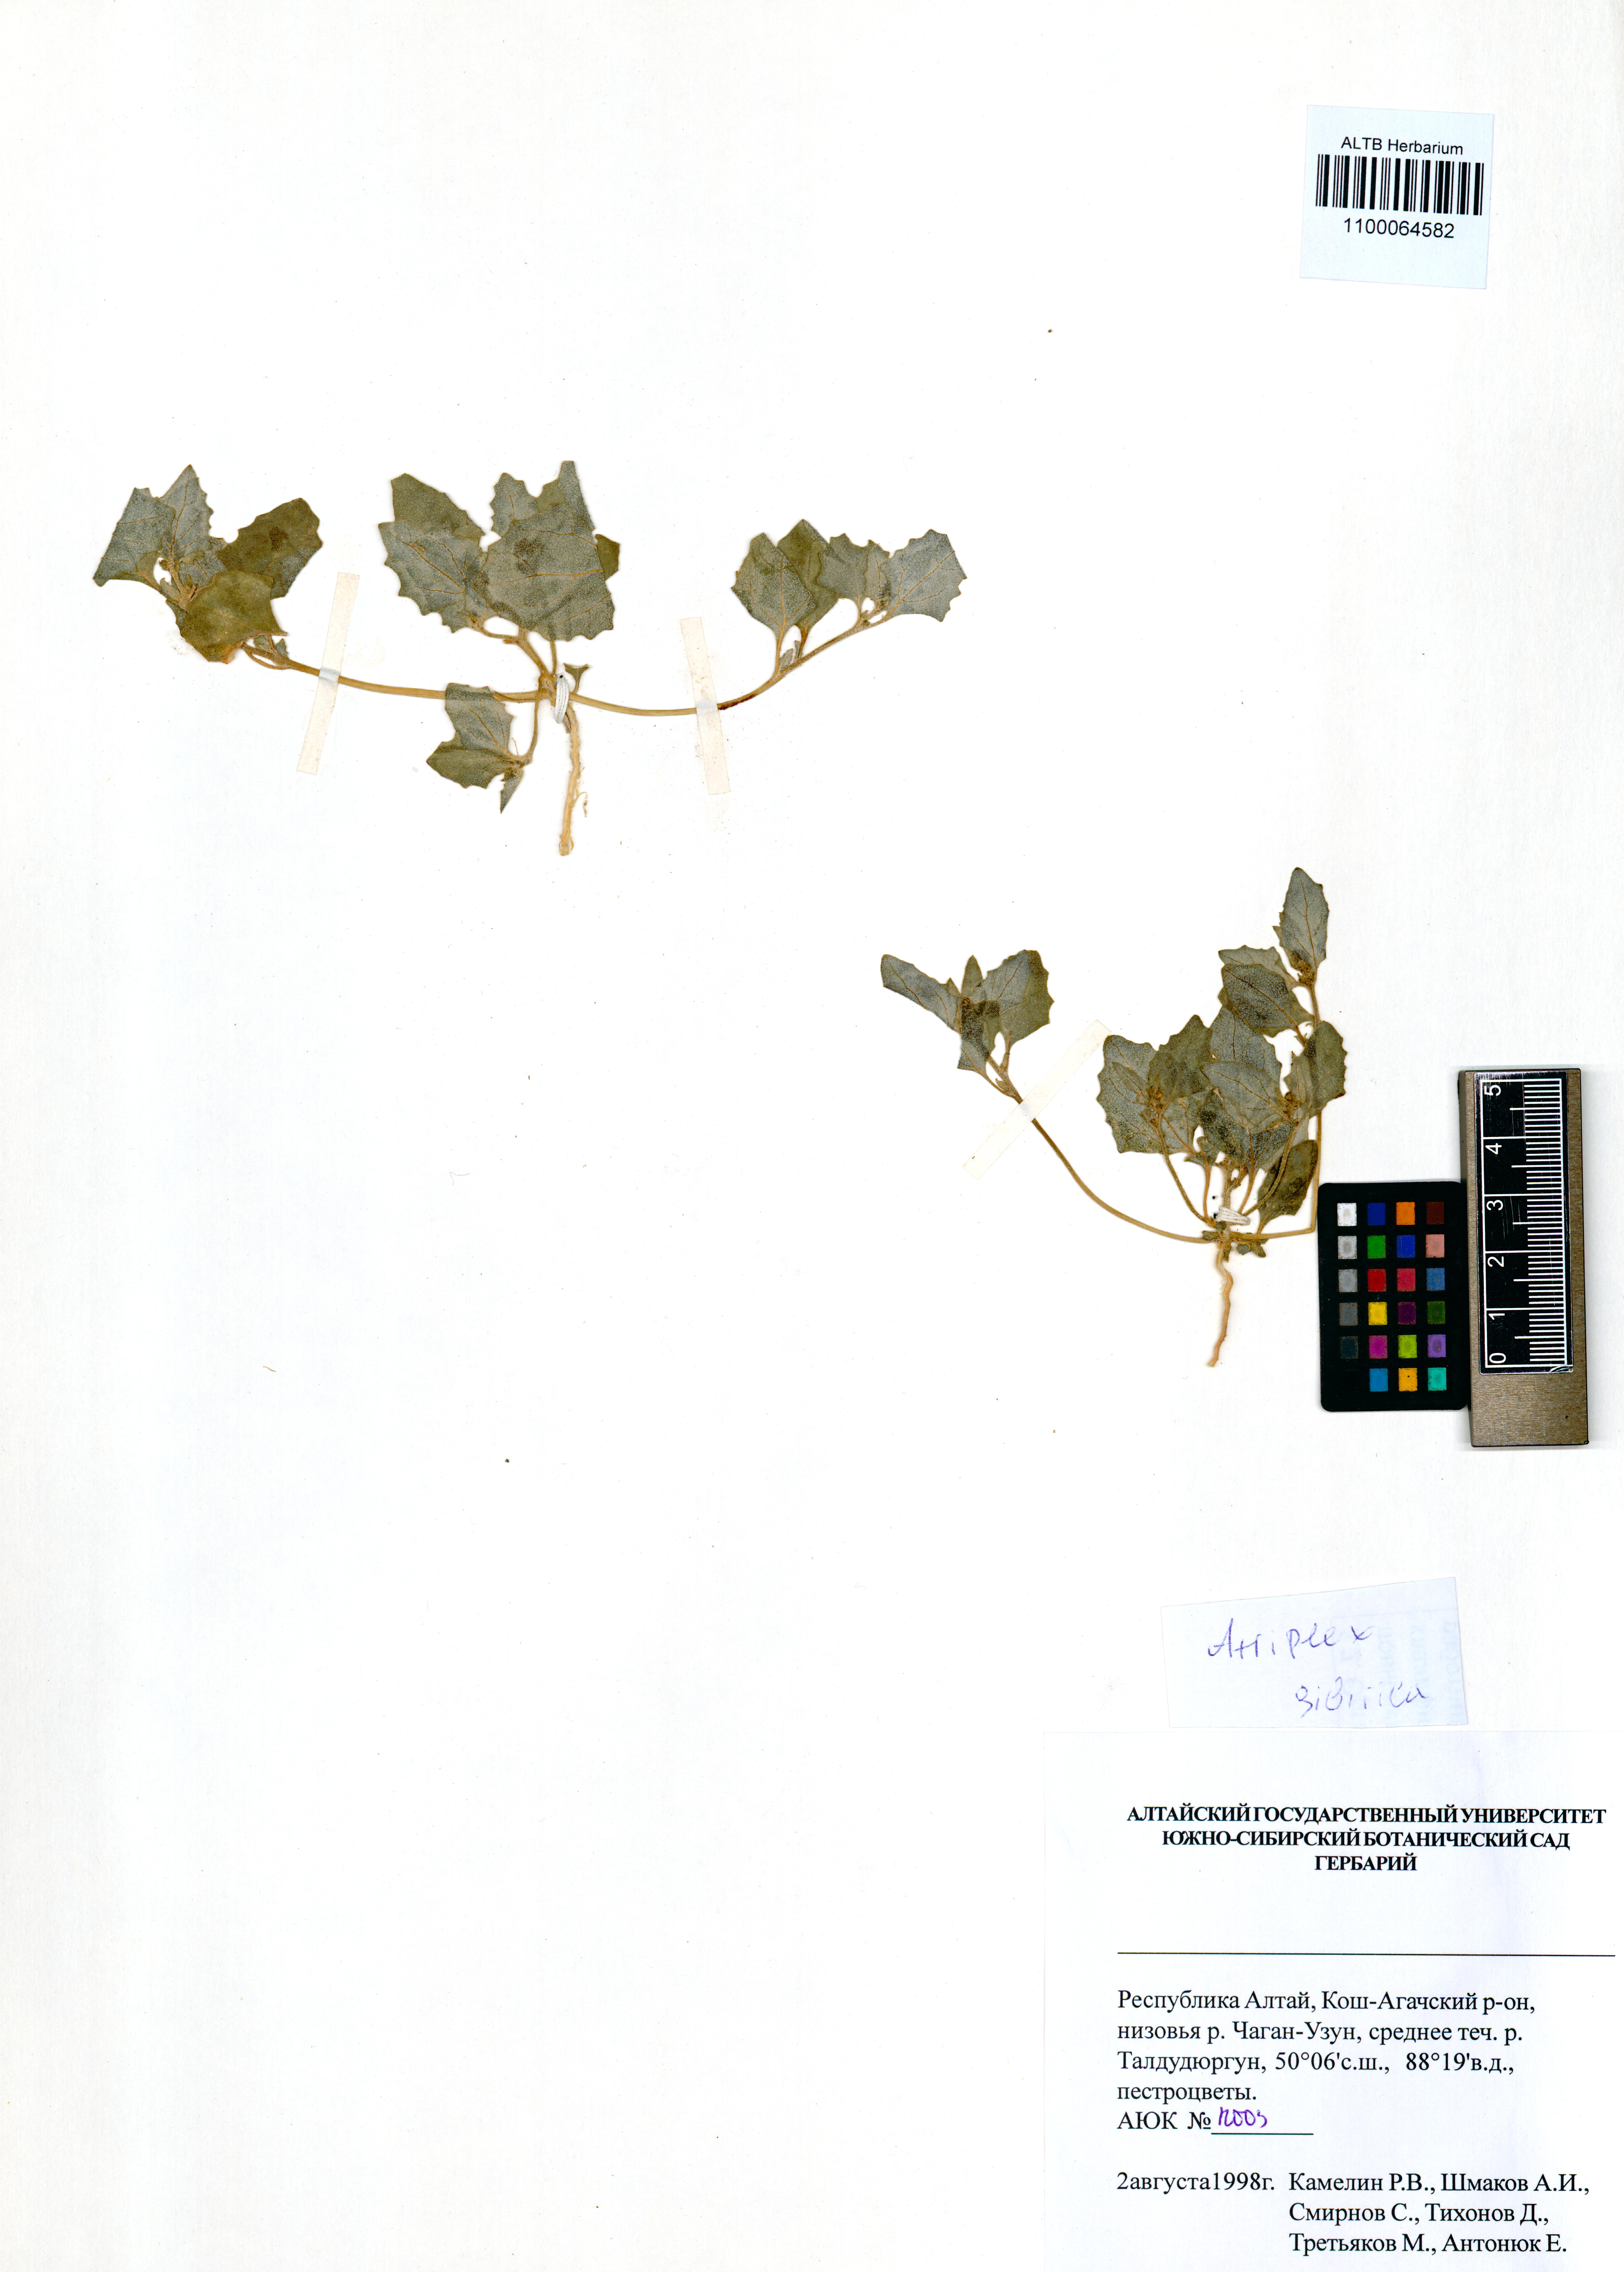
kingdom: Plantae
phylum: Tracheophyta
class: Magnoliopsida
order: Caryophyllales
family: Amaranthaceae
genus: Atriplex
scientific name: Atriplex sibirica
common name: Siberian saltbush
